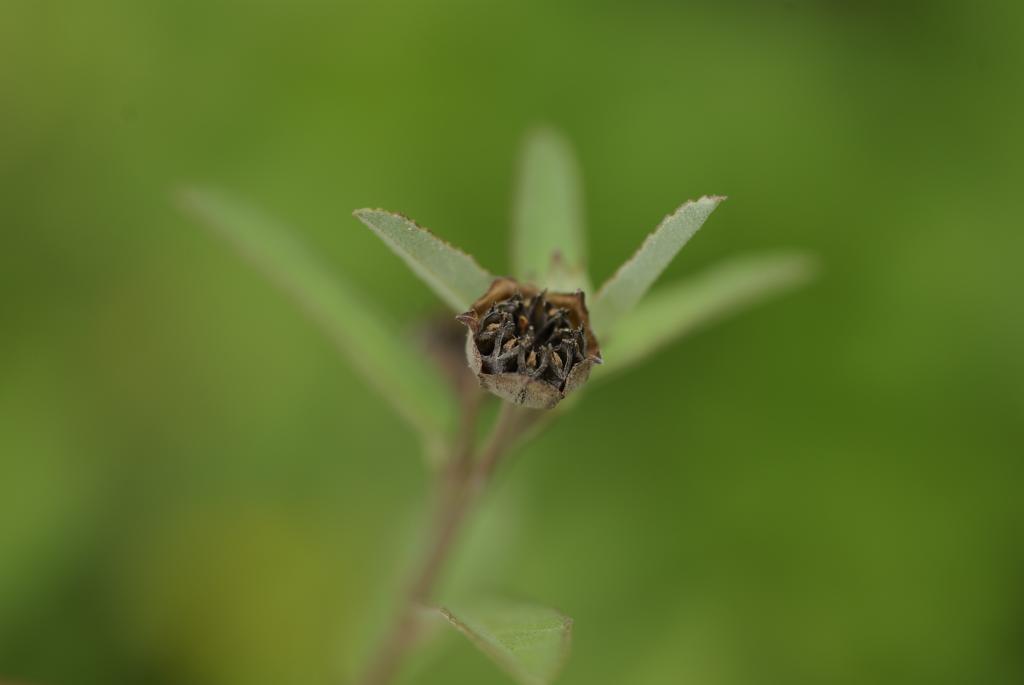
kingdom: Plantae
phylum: Tracheophyta
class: Magnoliopsida
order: Malvales
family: Malvaceae
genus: Sida
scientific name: Sida rhombifolia
